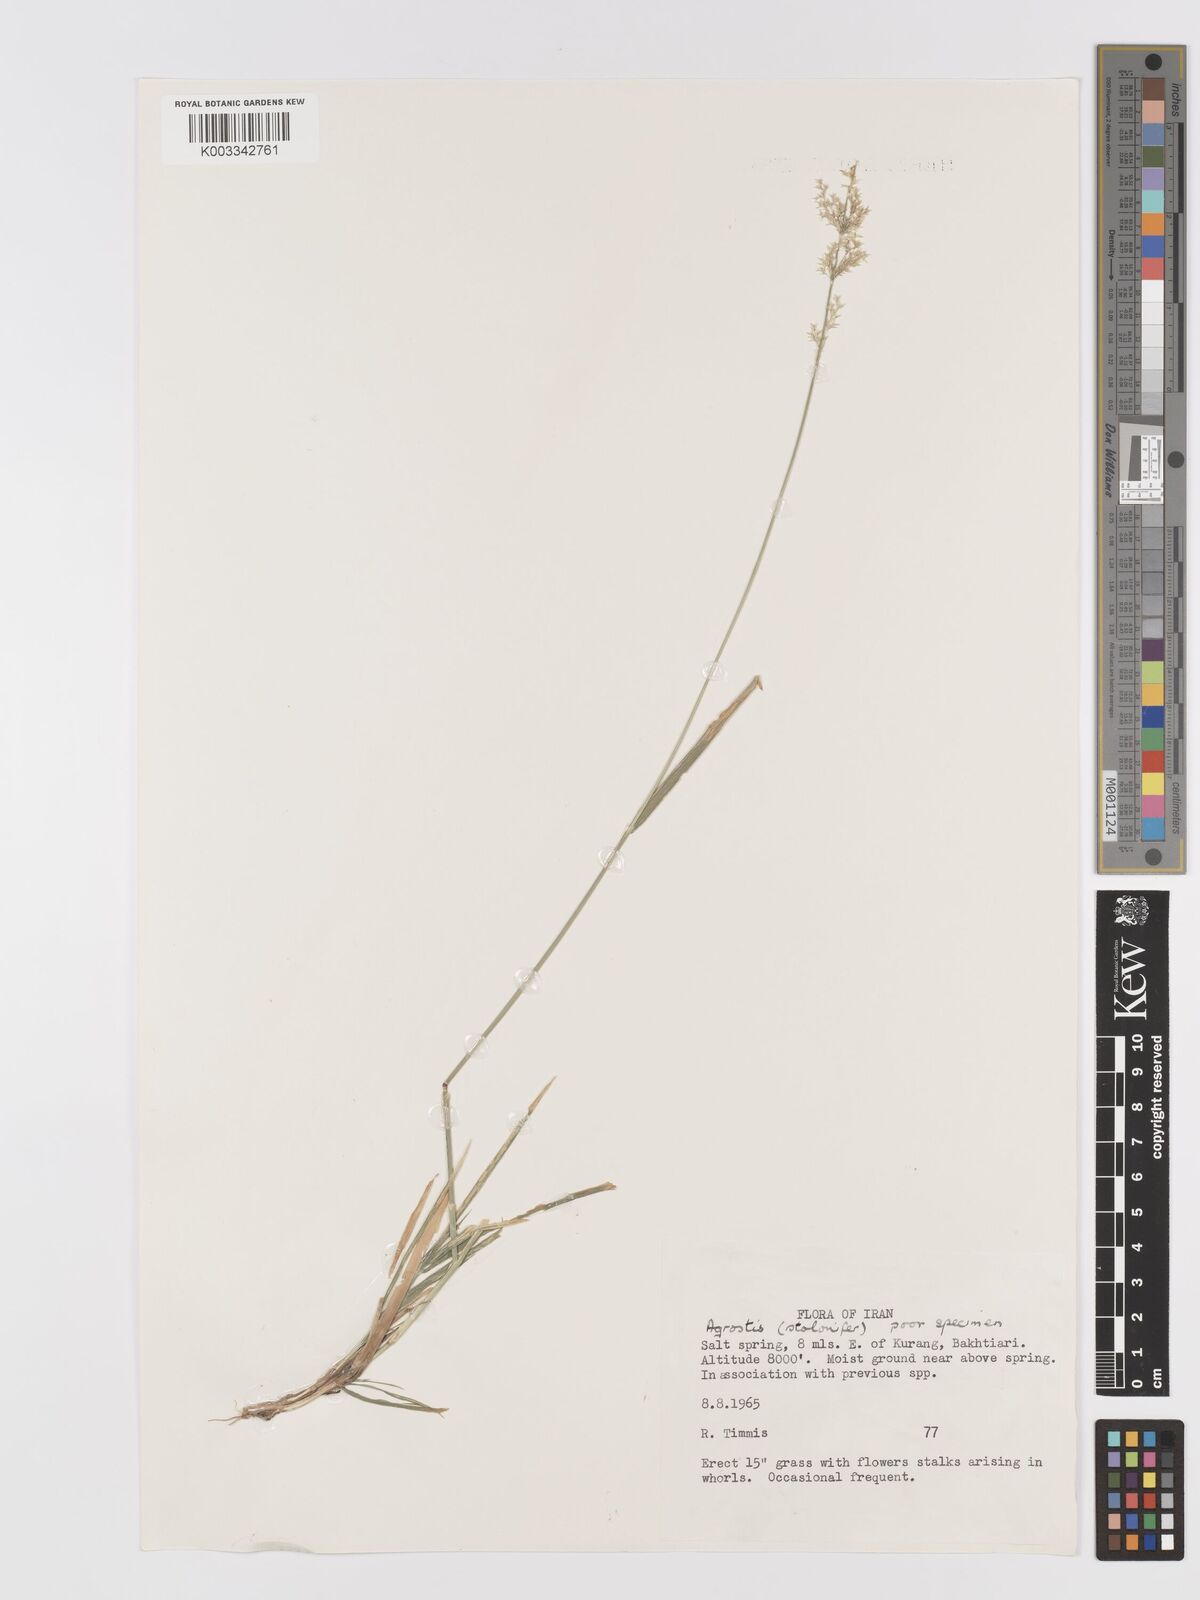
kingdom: Plantae
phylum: Tracheophyta
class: Liliopsida
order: Poales
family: Poaceae
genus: Agrostis
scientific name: Agrostis stolonifera
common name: Creeping bentgrass
